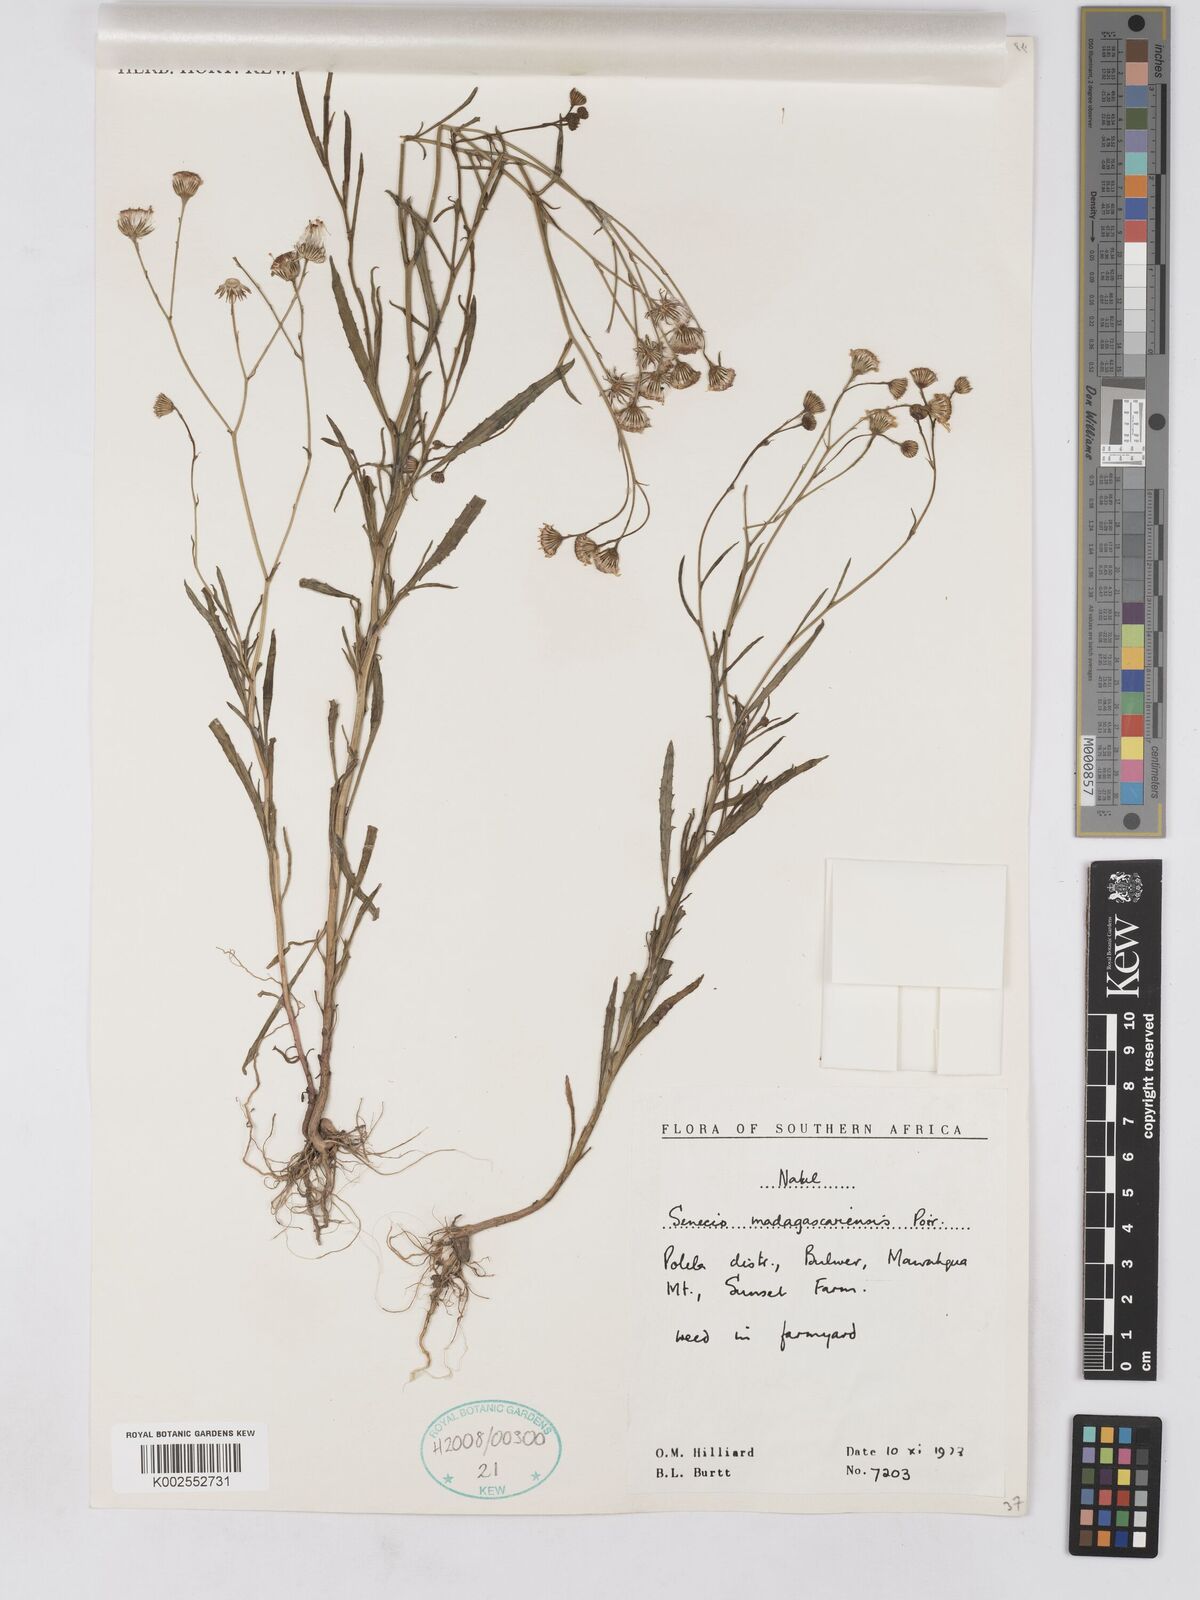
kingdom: Plantae
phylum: Tracheophyta
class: Magnoliopsida
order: Asterales
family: Asteraceae
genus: Senecio
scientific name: Senecio madagascariensis
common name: Madagascar ragwort
